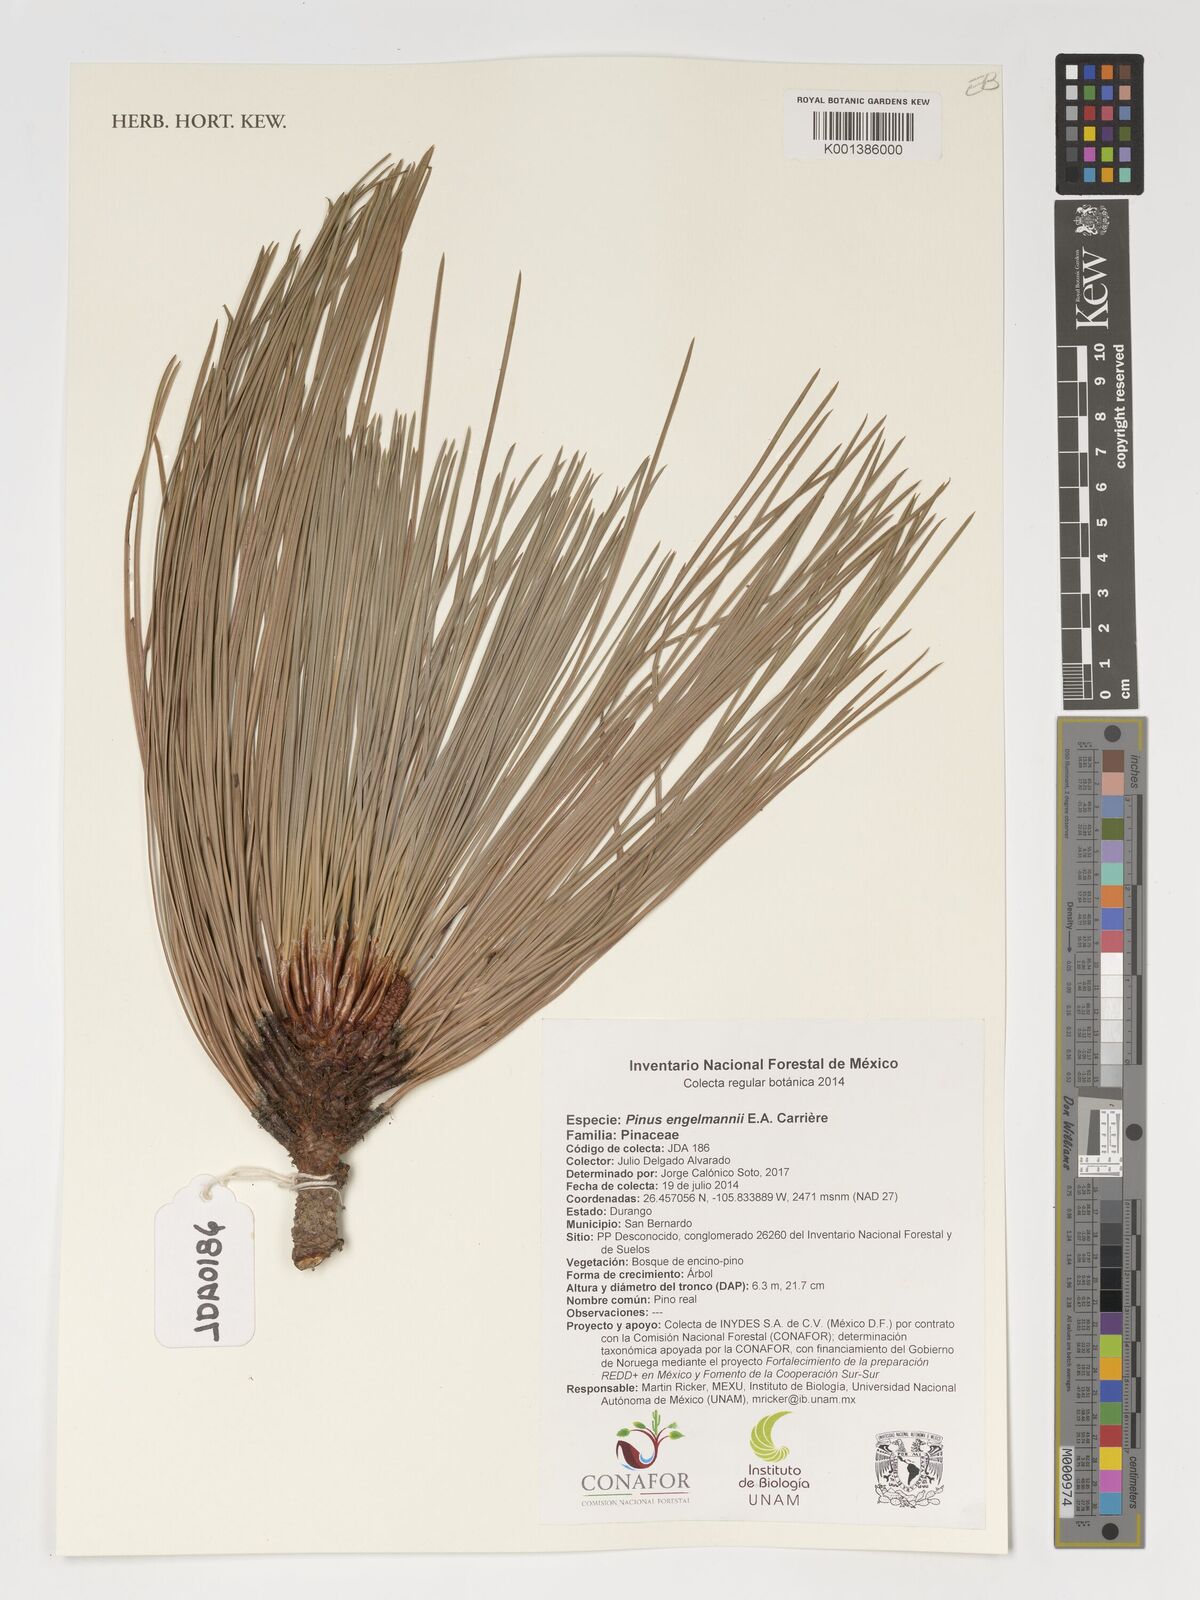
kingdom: Plantae
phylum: Tracheophyta
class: Pinopsida
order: Pinales
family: Pinaceae
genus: Pinus
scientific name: Pinus engelmannii
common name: Apache pine
